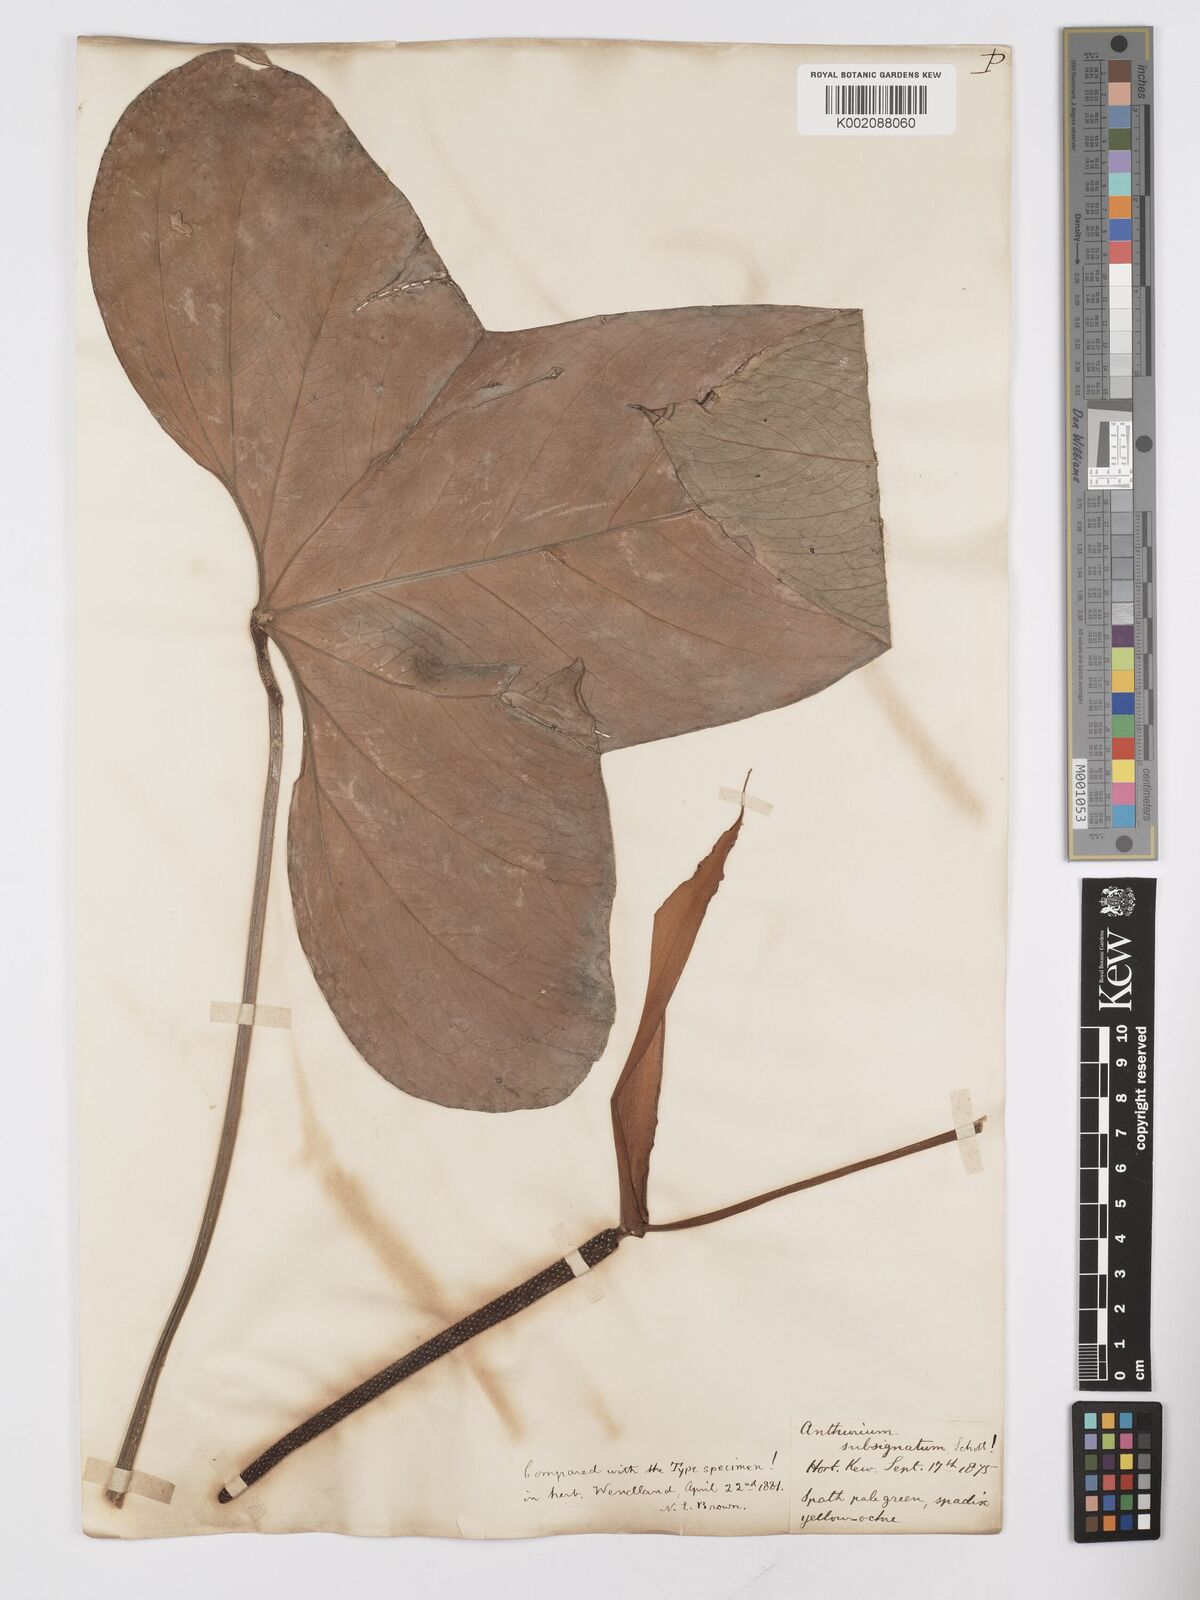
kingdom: Plantae
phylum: Tracheophyta
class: Liliopsida
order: Alismatales
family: Araceae
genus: Anthurium
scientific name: Anthurium subsignatum
